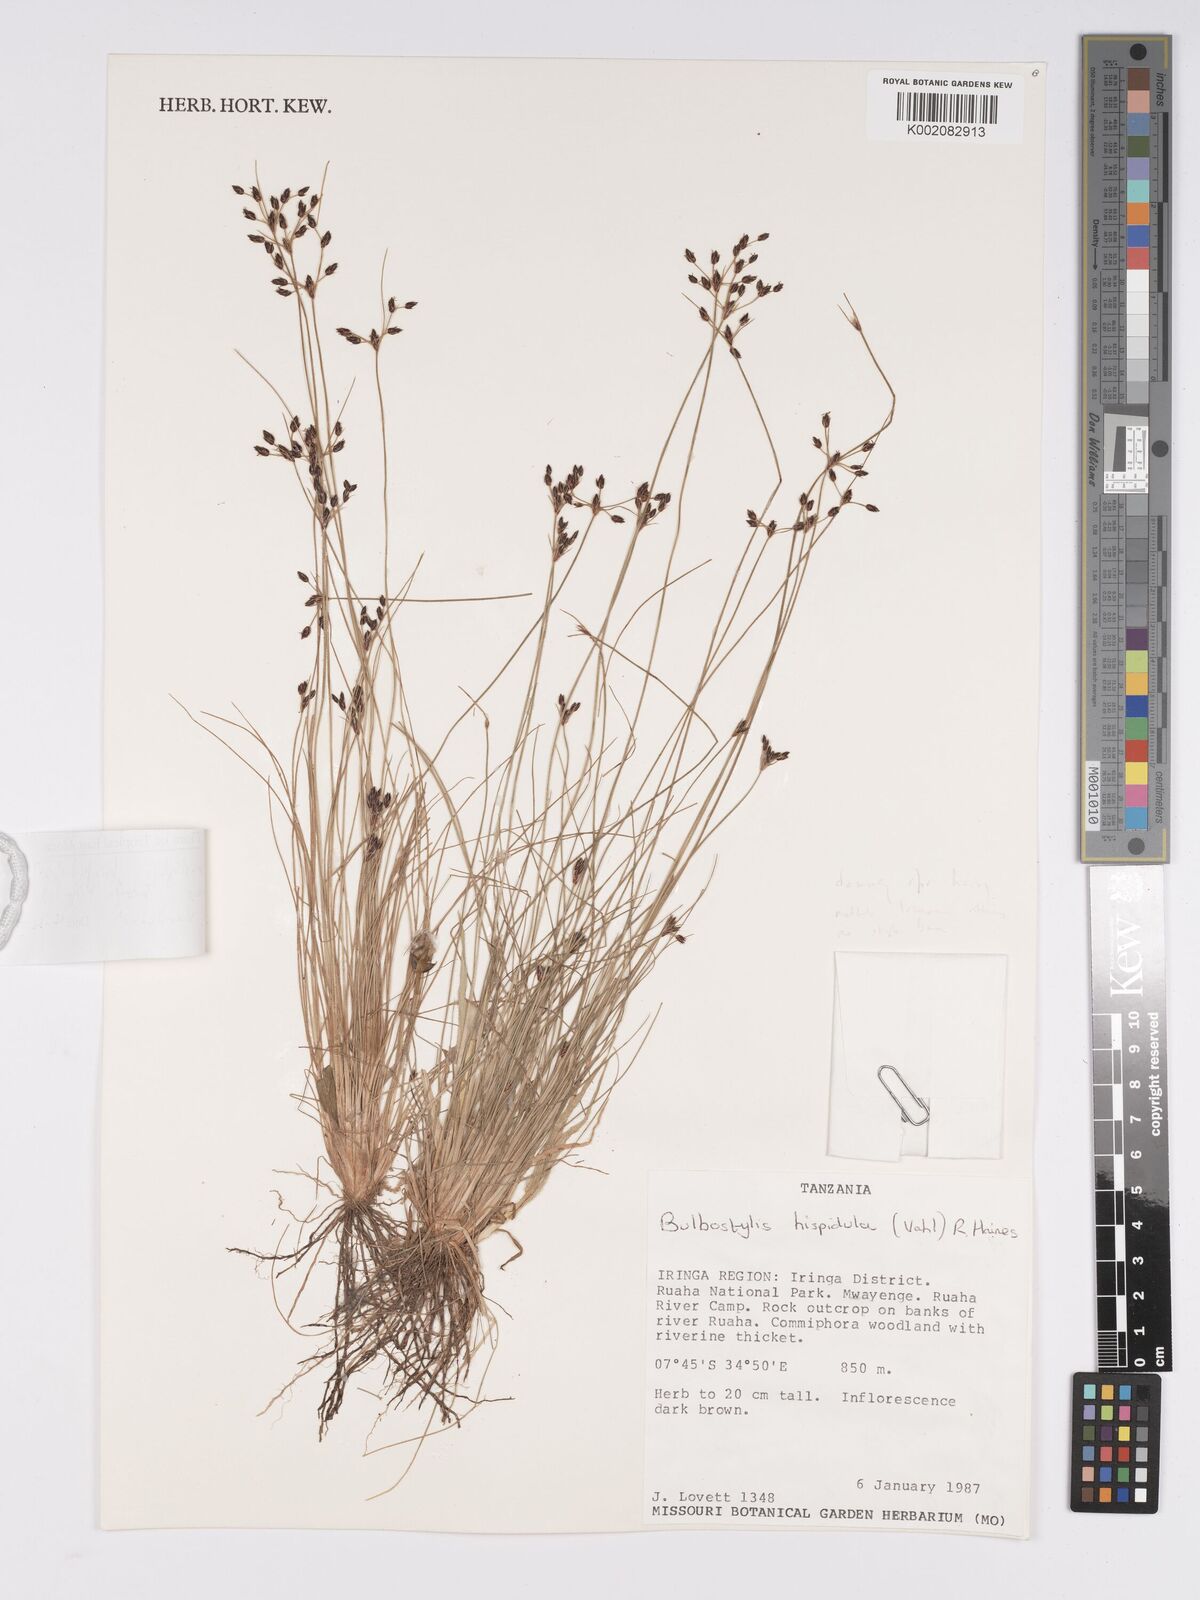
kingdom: Plantae
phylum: Tracheophyta
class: Liliopsida
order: Poales
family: Cyperaceae
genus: Bulbostylis
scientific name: Bulbostylis hispidula
